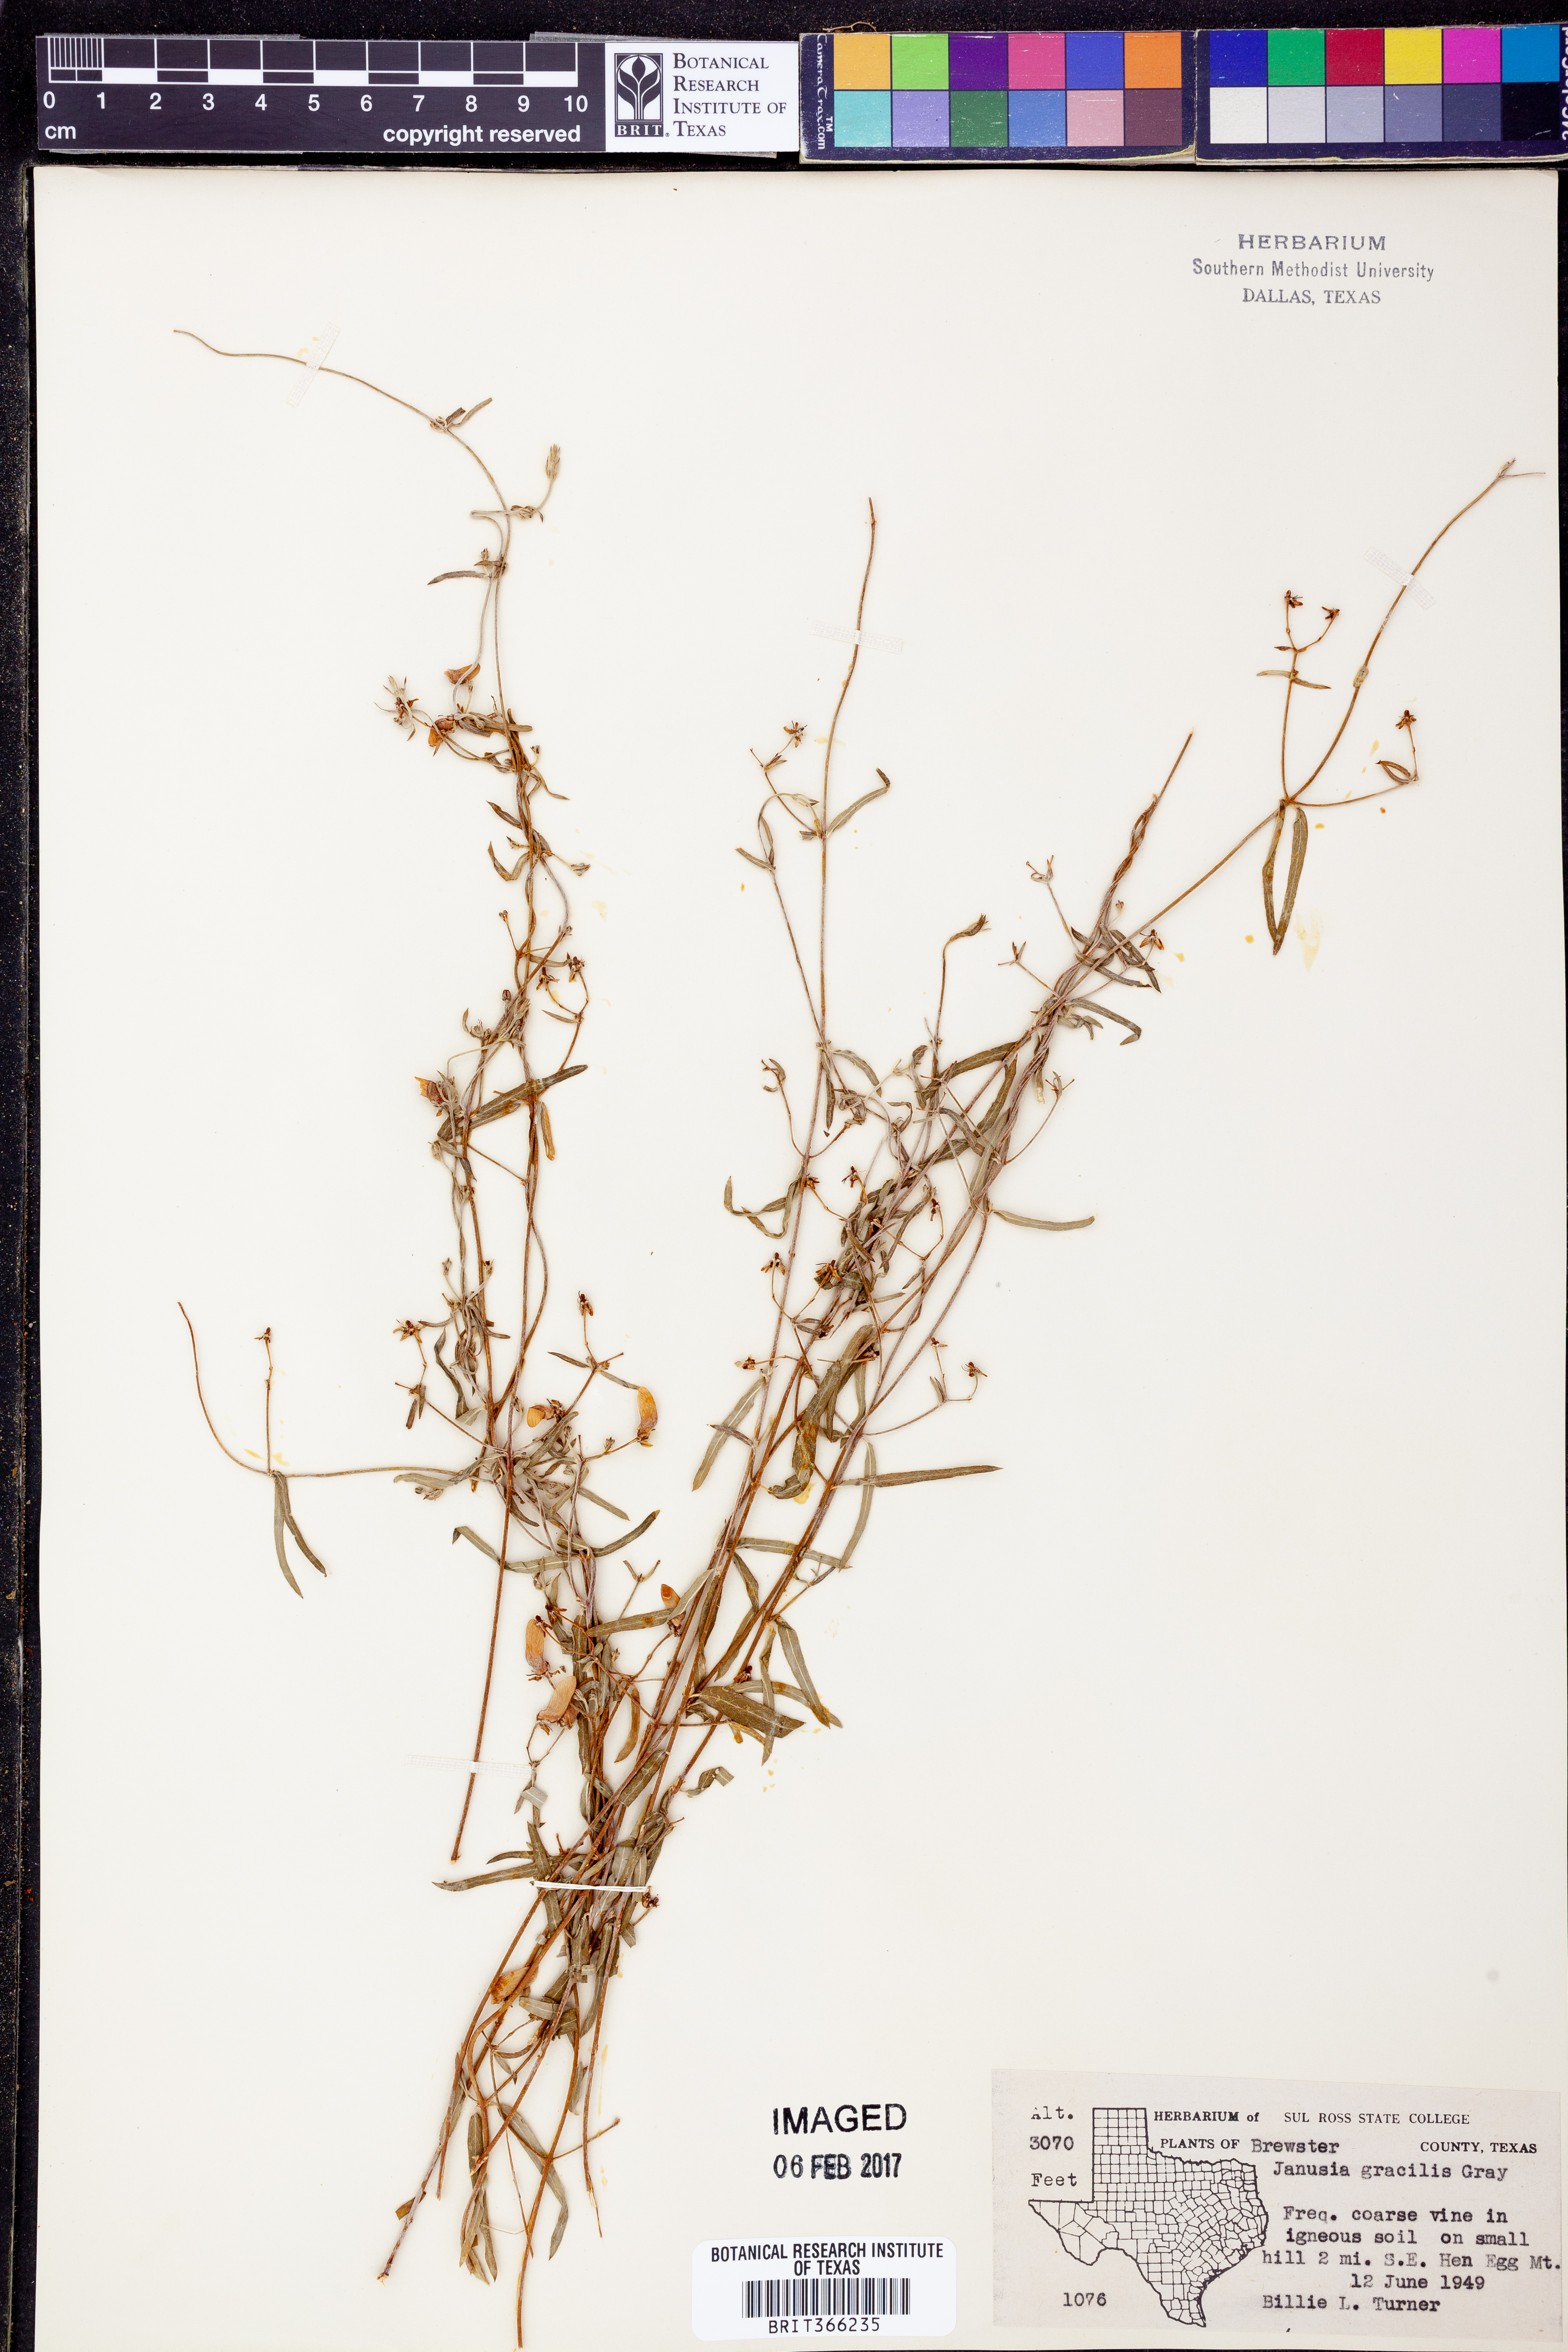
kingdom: Plantae
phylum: Tracheophyta
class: Magnoliopsida
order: Malpighiales
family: Malpighiaceae
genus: Cottsia
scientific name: Cottsia gracilis
